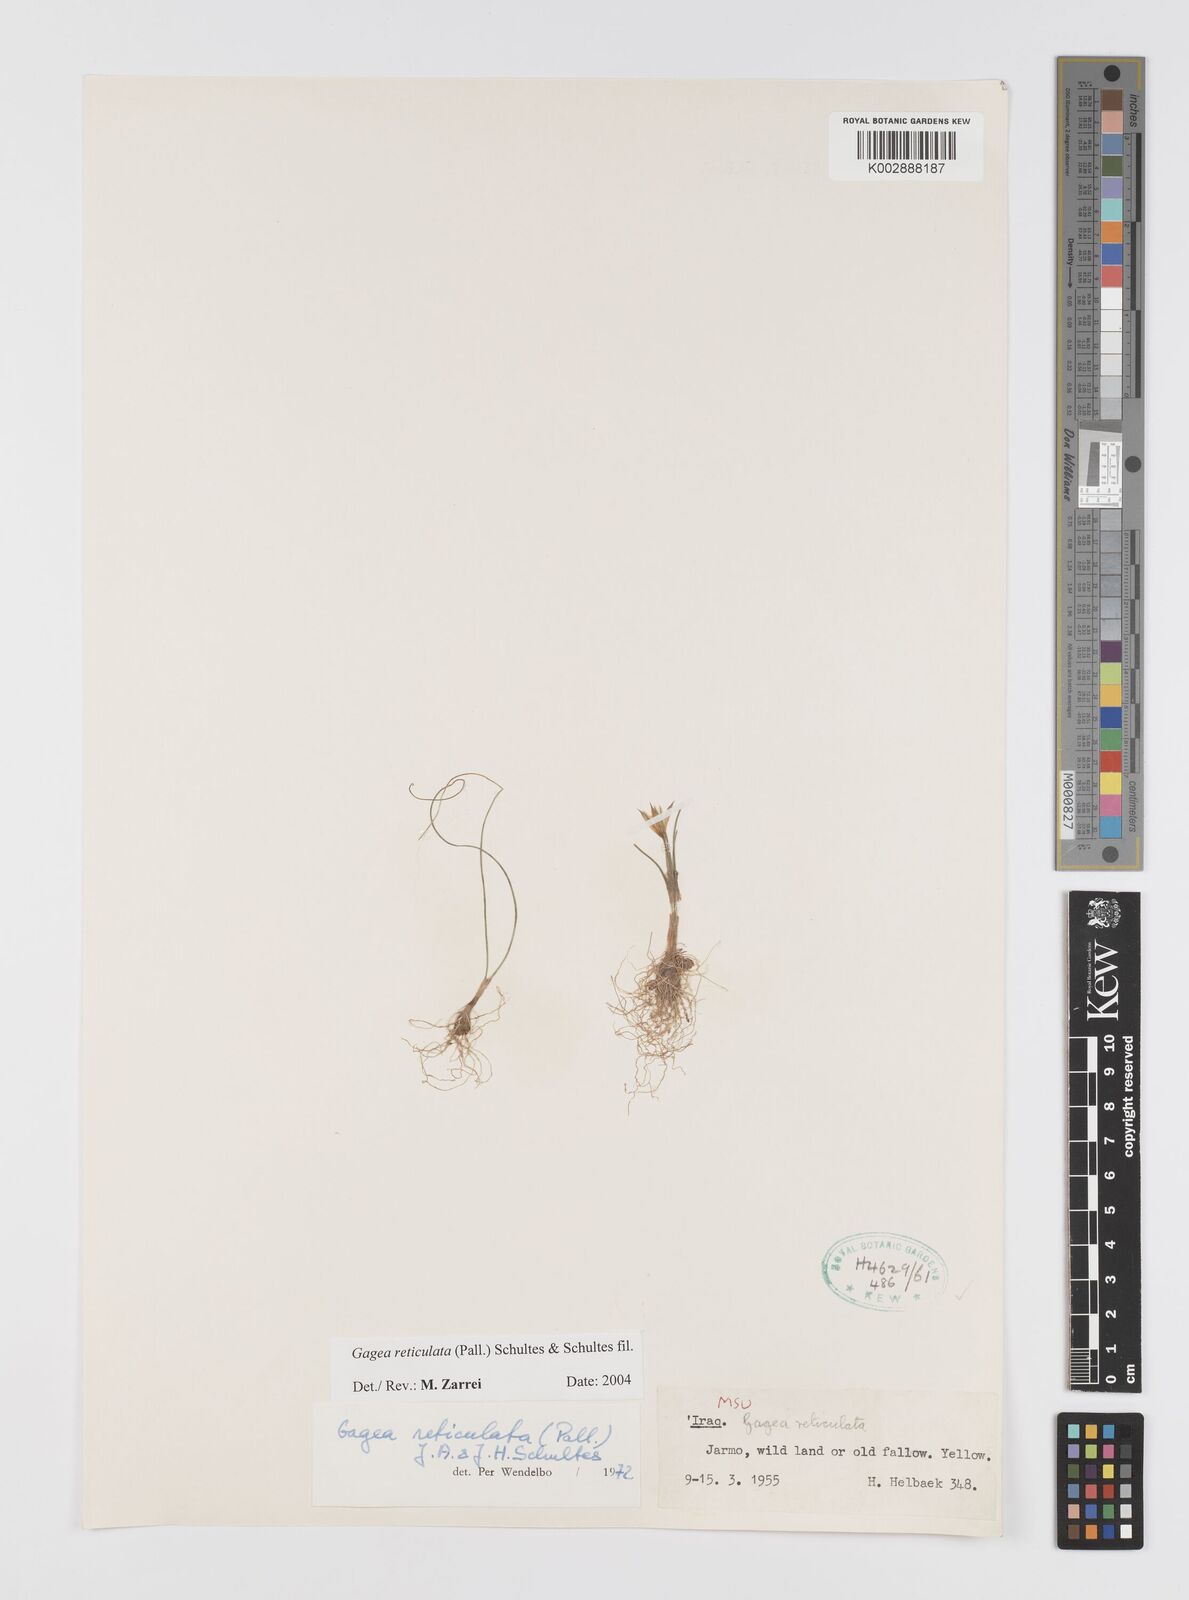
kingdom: Plantae
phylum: Tracheophyta
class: Liliopsida
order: Liliales
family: Liliaceae
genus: Gagea
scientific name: Gagea reticulata
